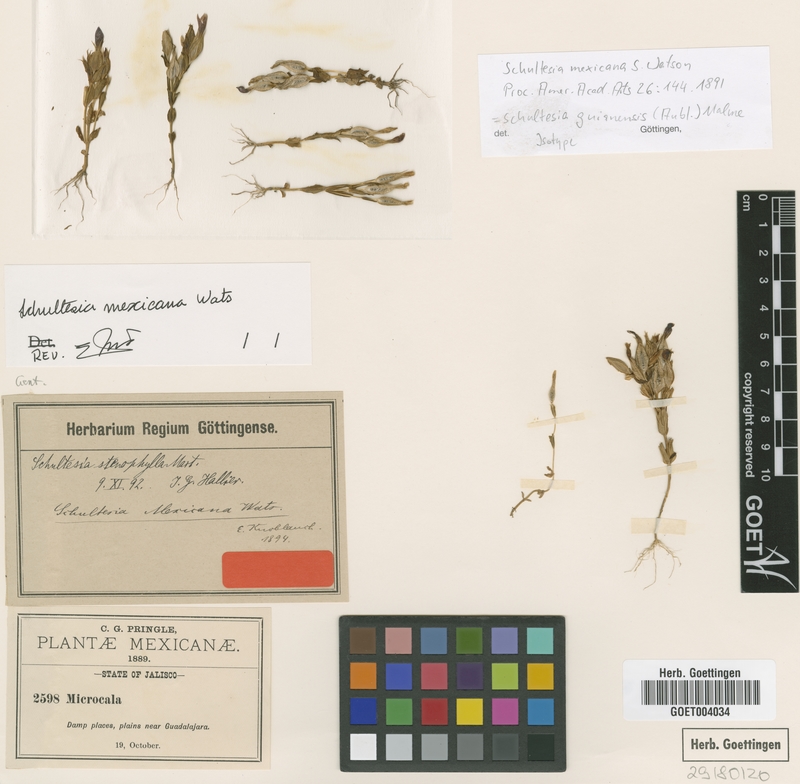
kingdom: Plantae
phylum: Tracheophyta
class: Magnoliopsida
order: Gentianales
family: Gentianaceae
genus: Schultesia
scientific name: Schultesia guianensis
